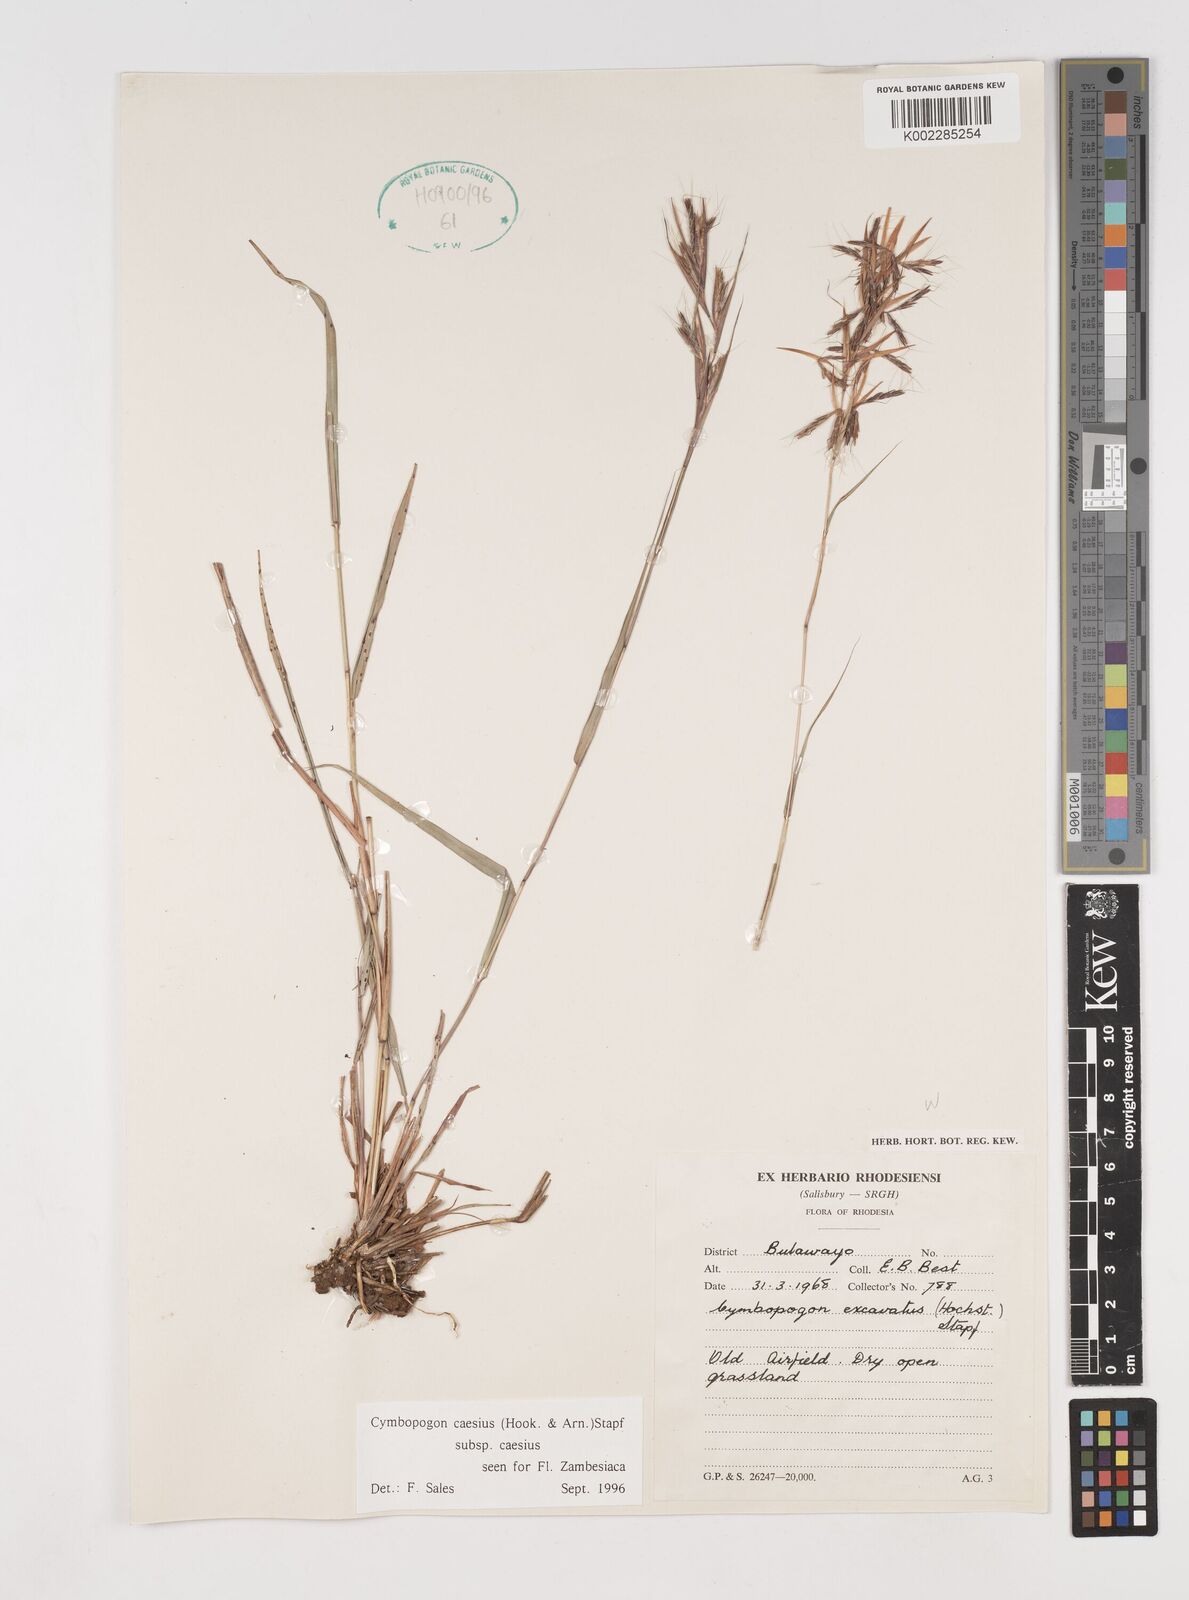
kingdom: Plantae
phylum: Tracheophyta
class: Liliopsida
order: Poales
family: Poaceae
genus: Cymbopogon
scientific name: Cymbopogon caesius
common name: Kachi grass
